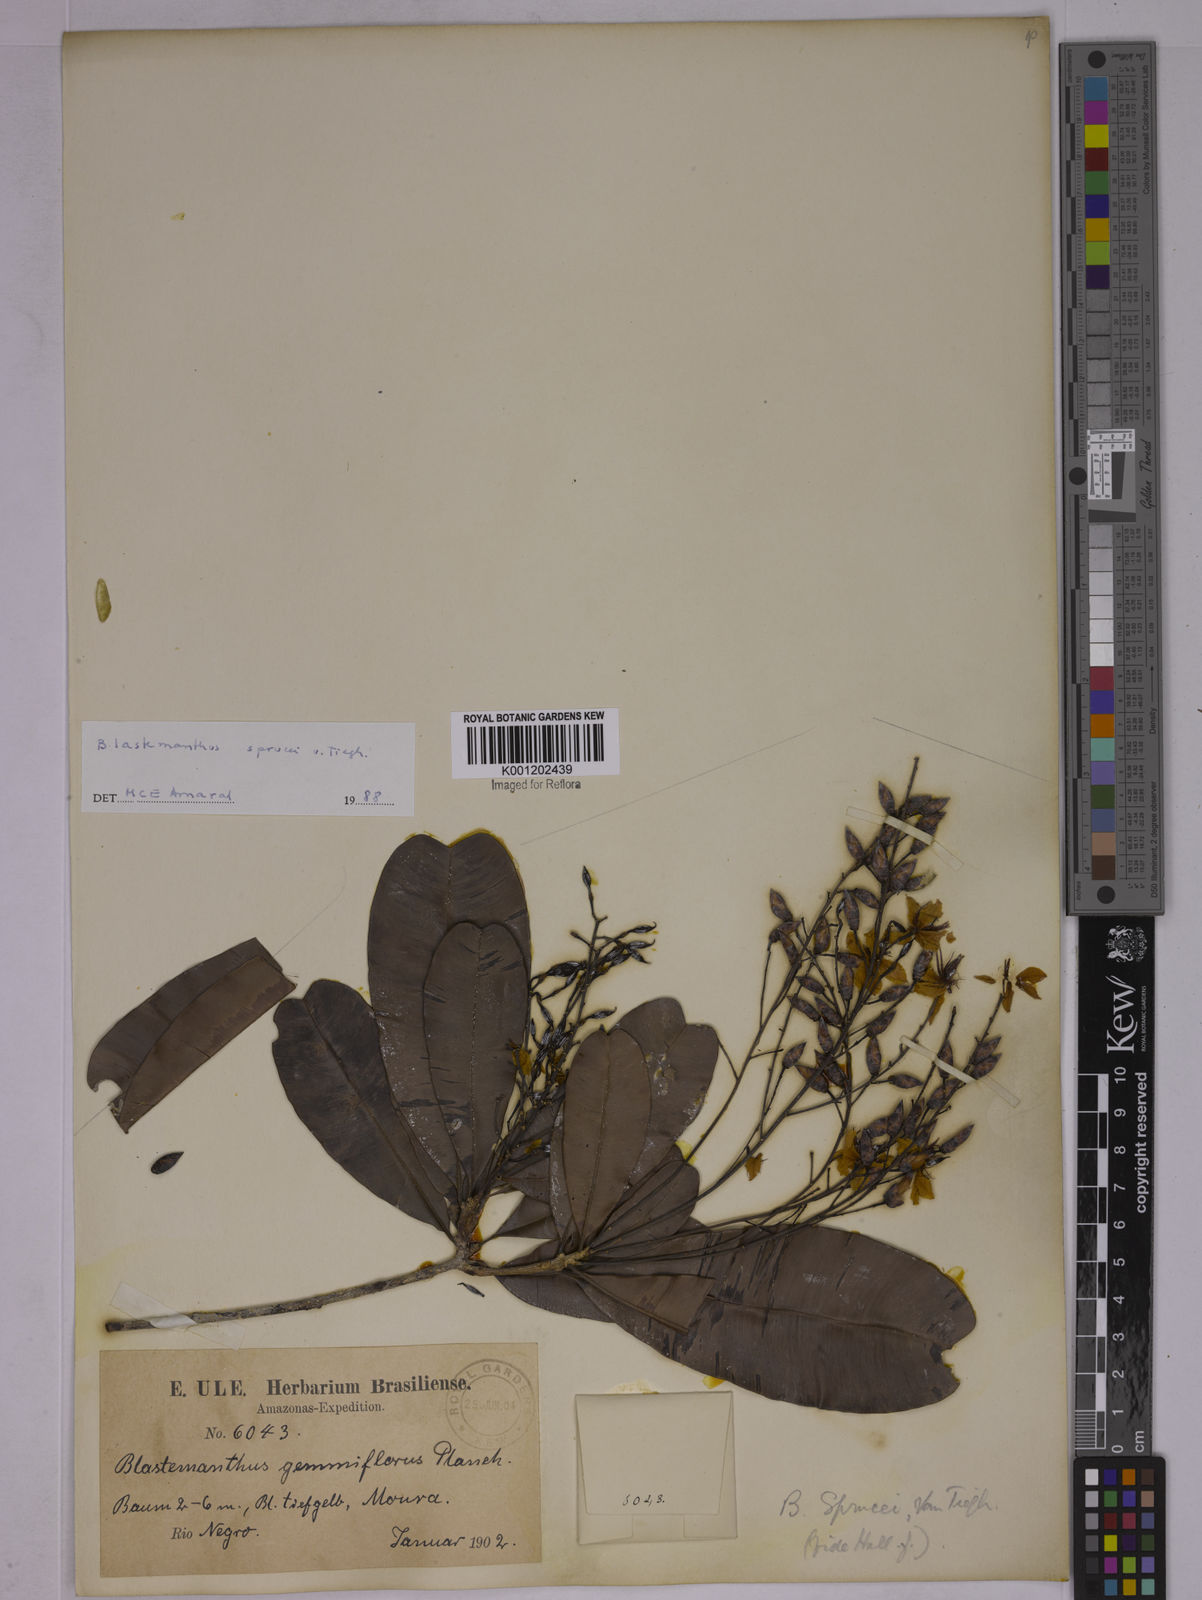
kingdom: Plantae
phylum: Tracheophyta
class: Magnoliopsida
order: Malpighiales
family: Ochnaceae
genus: Blastemanthus
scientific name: Blastemanthus gemmiflorus
